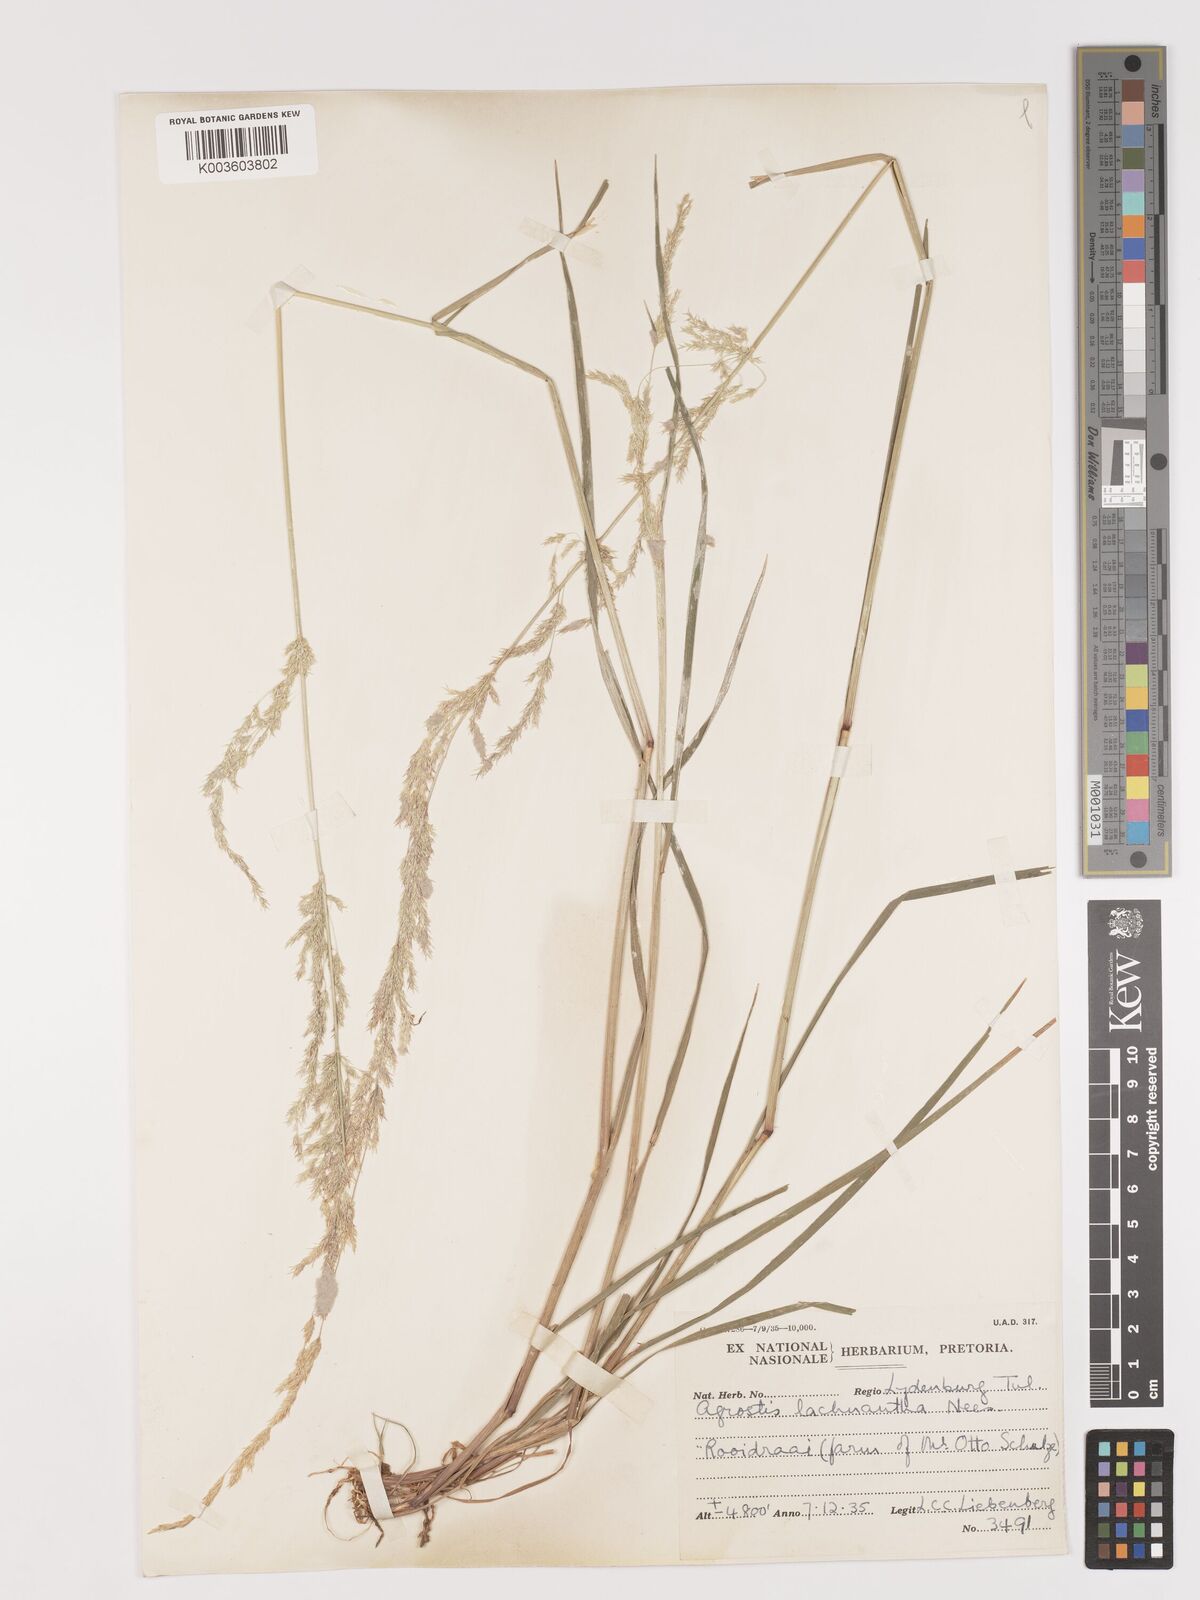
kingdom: Plantae
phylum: Tracheophyta
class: Liliopsida
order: Poales
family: Poaceae
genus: Lachnagrostis
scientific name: Lachnagrostis lachnantha
